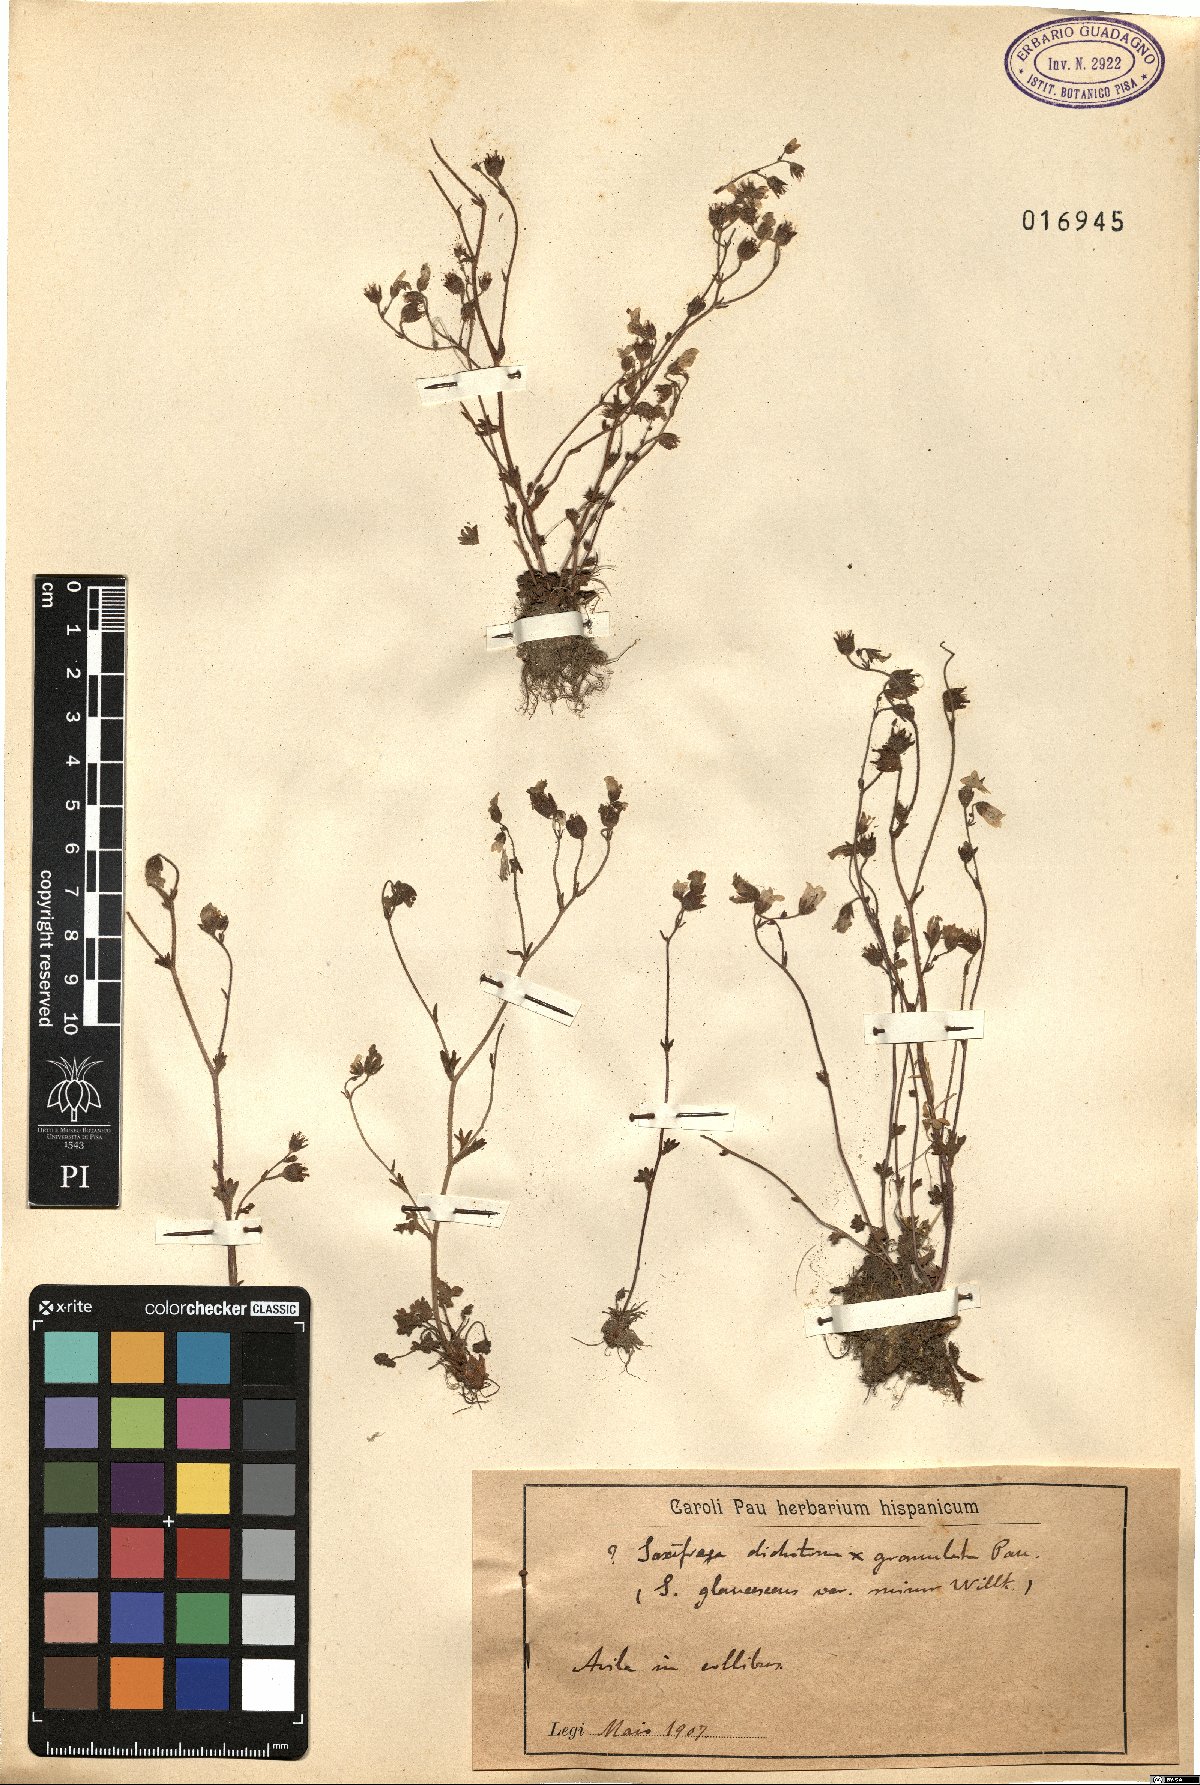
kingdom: Plantae
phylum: Tracheophyta
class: Magnoliopsida
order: Saxifragales
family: Saxifragaceae
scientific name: Saxifragaceae
